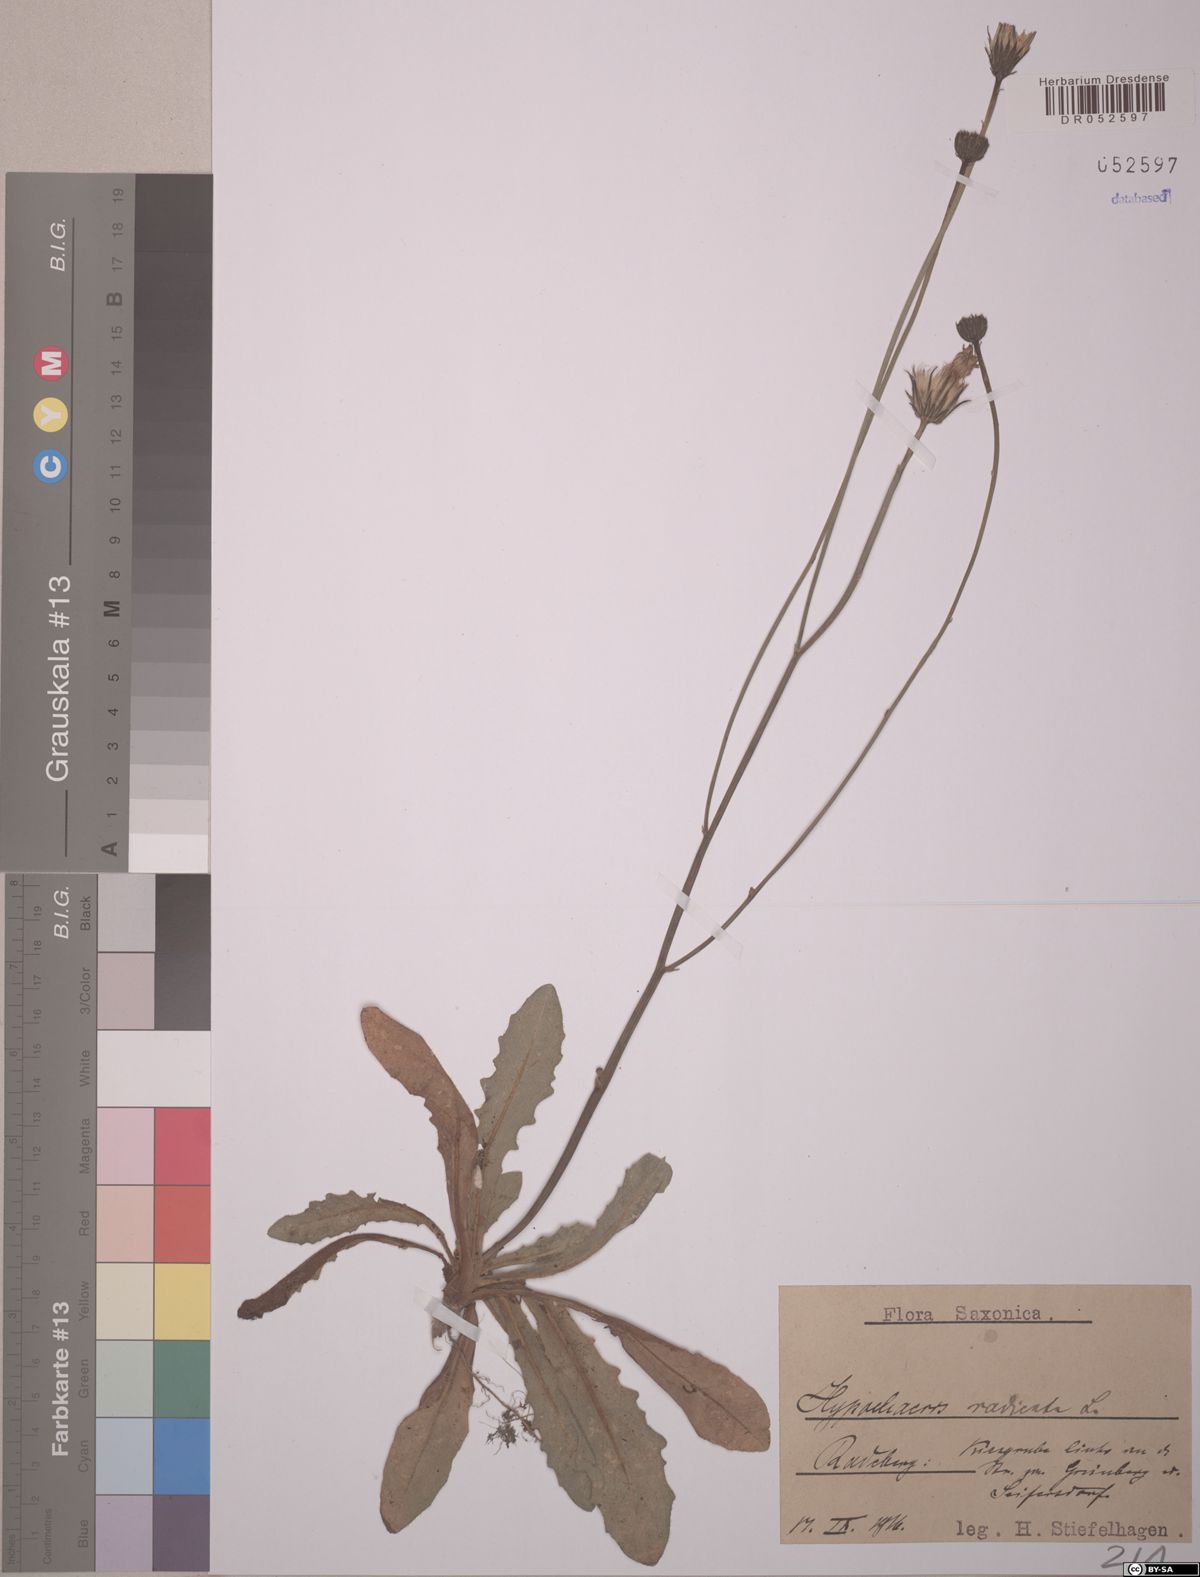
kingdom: Plantae
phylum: Tracheophyta
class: Magnoliopsida
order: Asterales
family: Asteraceae
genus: Hypochaeris
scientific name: Hypochaeris radicata
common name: Flatweed
